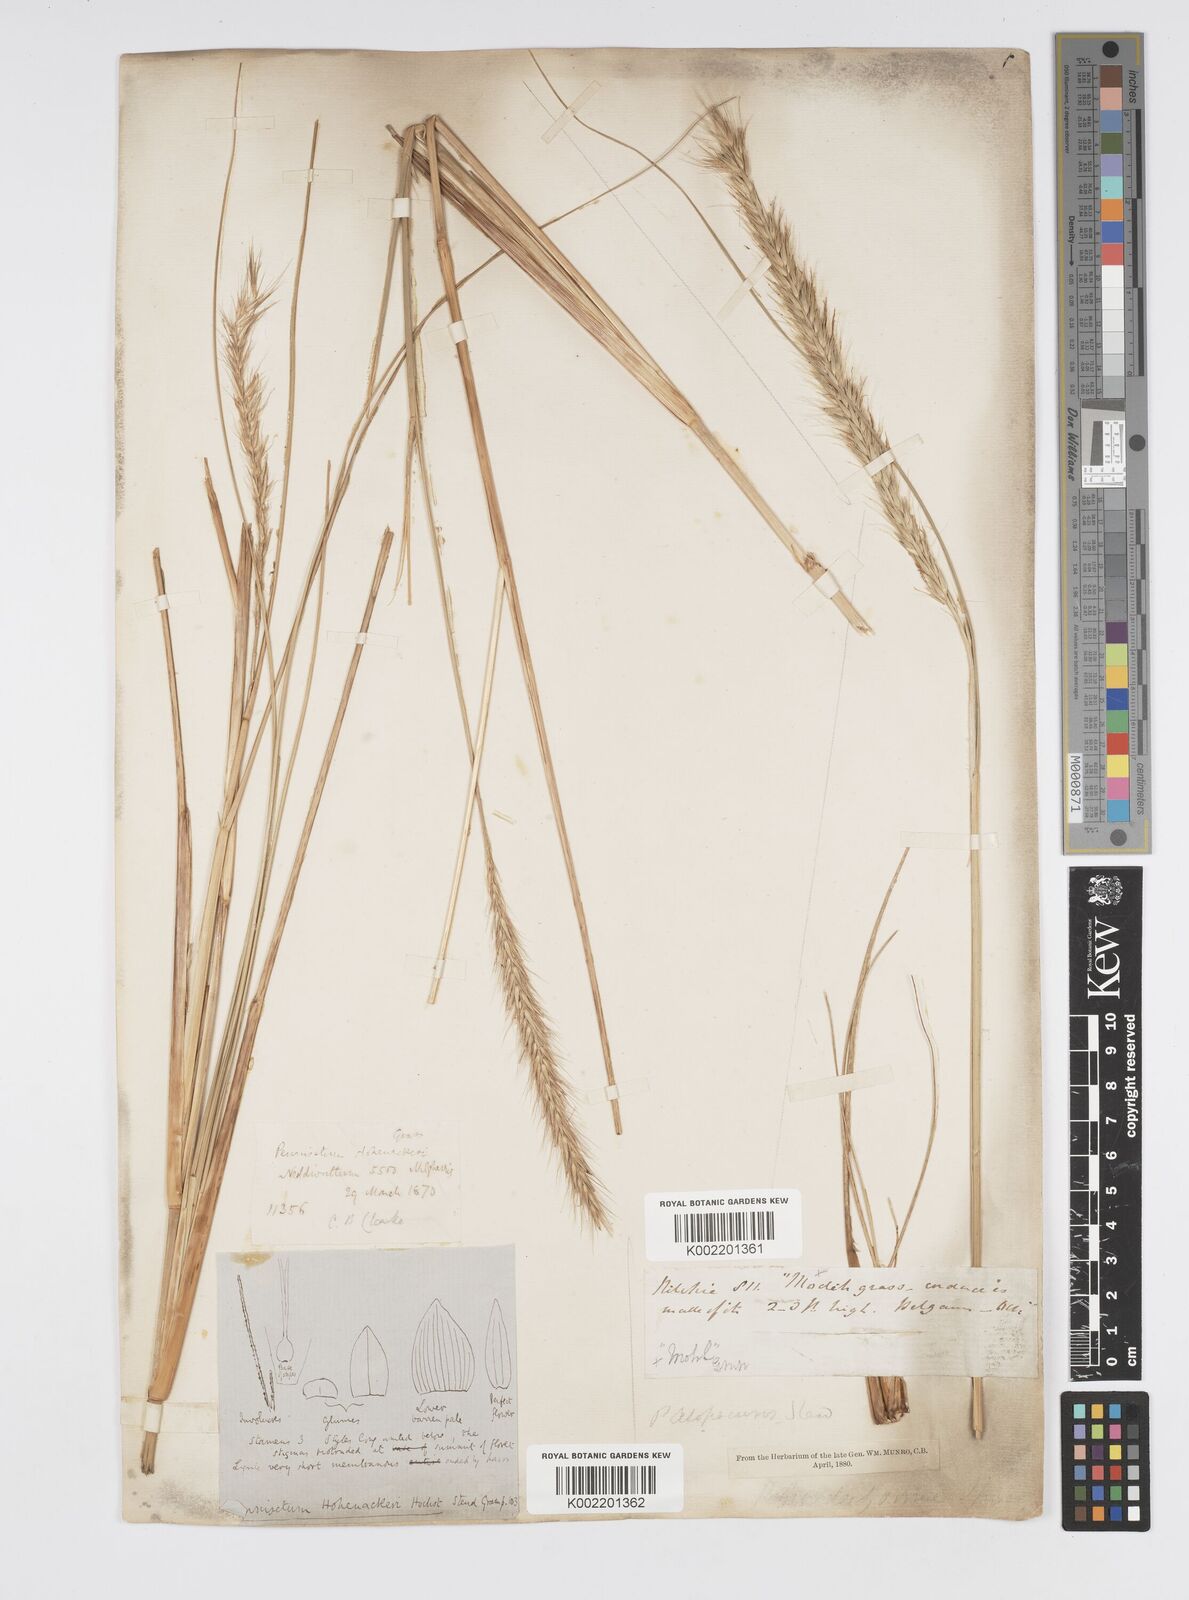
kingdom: Plantae
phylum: Tracheophyta
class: Liliopsida
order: Poales
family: Poaceae
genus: Cenchrus
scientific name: Cenchrus hohenackeri
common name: Moya grass
